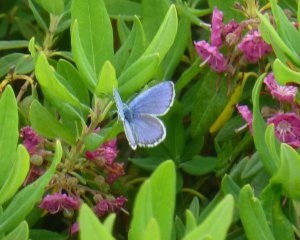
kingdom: Animalia
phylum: Arthropoda
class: Insecta
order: Lepidoptera
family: Lycaenidae
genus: Lycaeides
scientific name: Lycaeides idas
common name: Northern Blue
